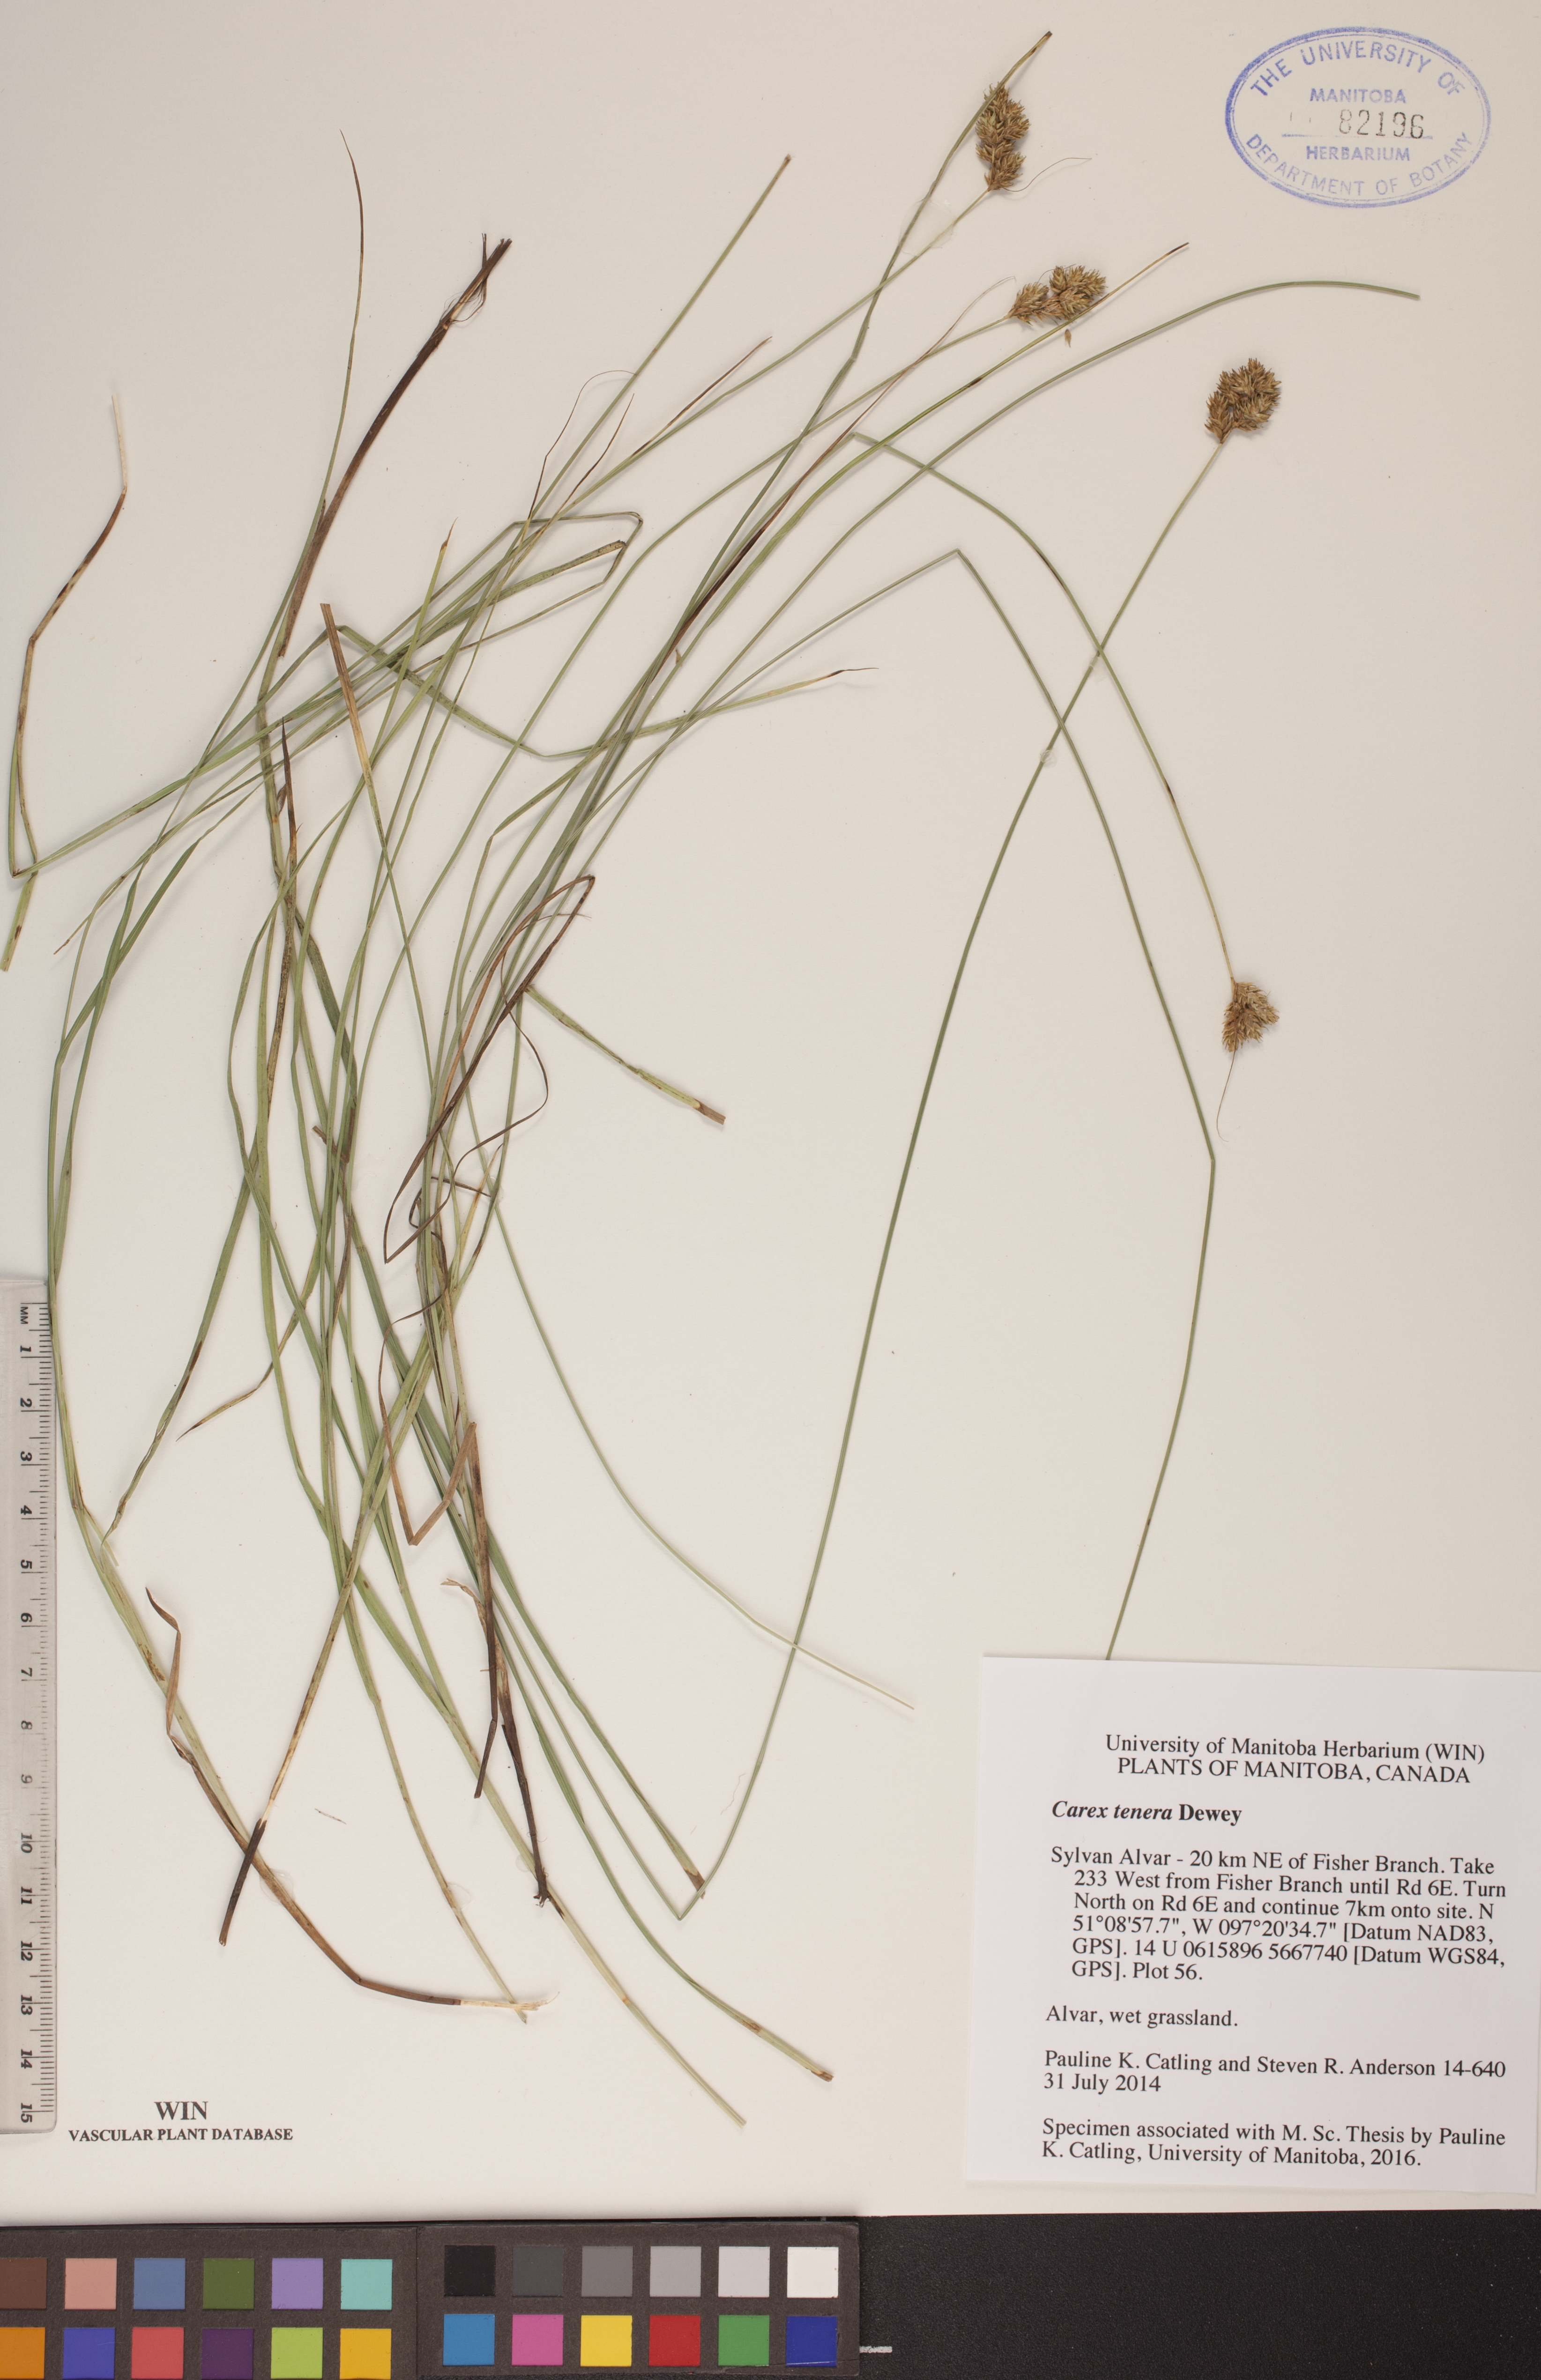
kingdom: Plantae
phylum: Tracheophyta
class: Liliopsida
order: Poales
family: Cyperaceae
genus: Carex
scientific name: Carex tenera
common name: Broad-fruited sedge
